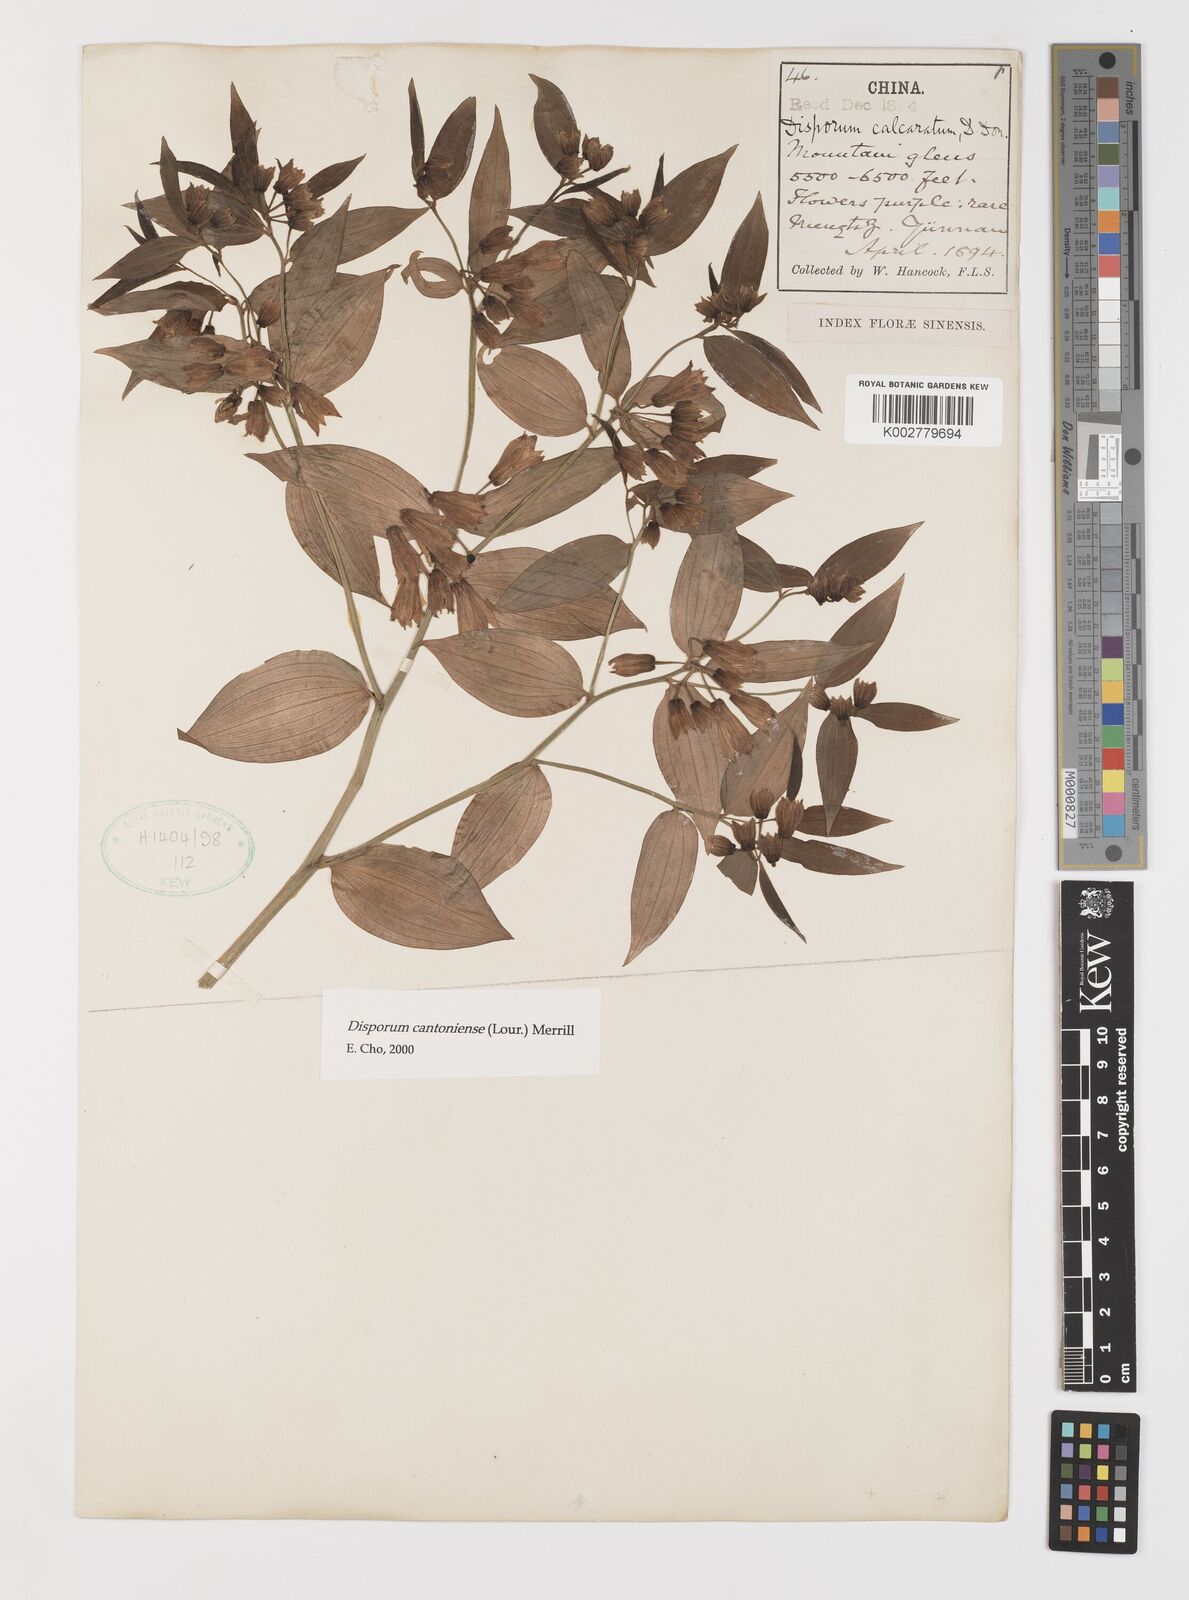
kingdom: Plantae
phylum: Tracheophyta
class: Liliopsida
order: Liliales
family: Colchicaceae
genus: Disporum
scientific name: Disporum cantoniense
